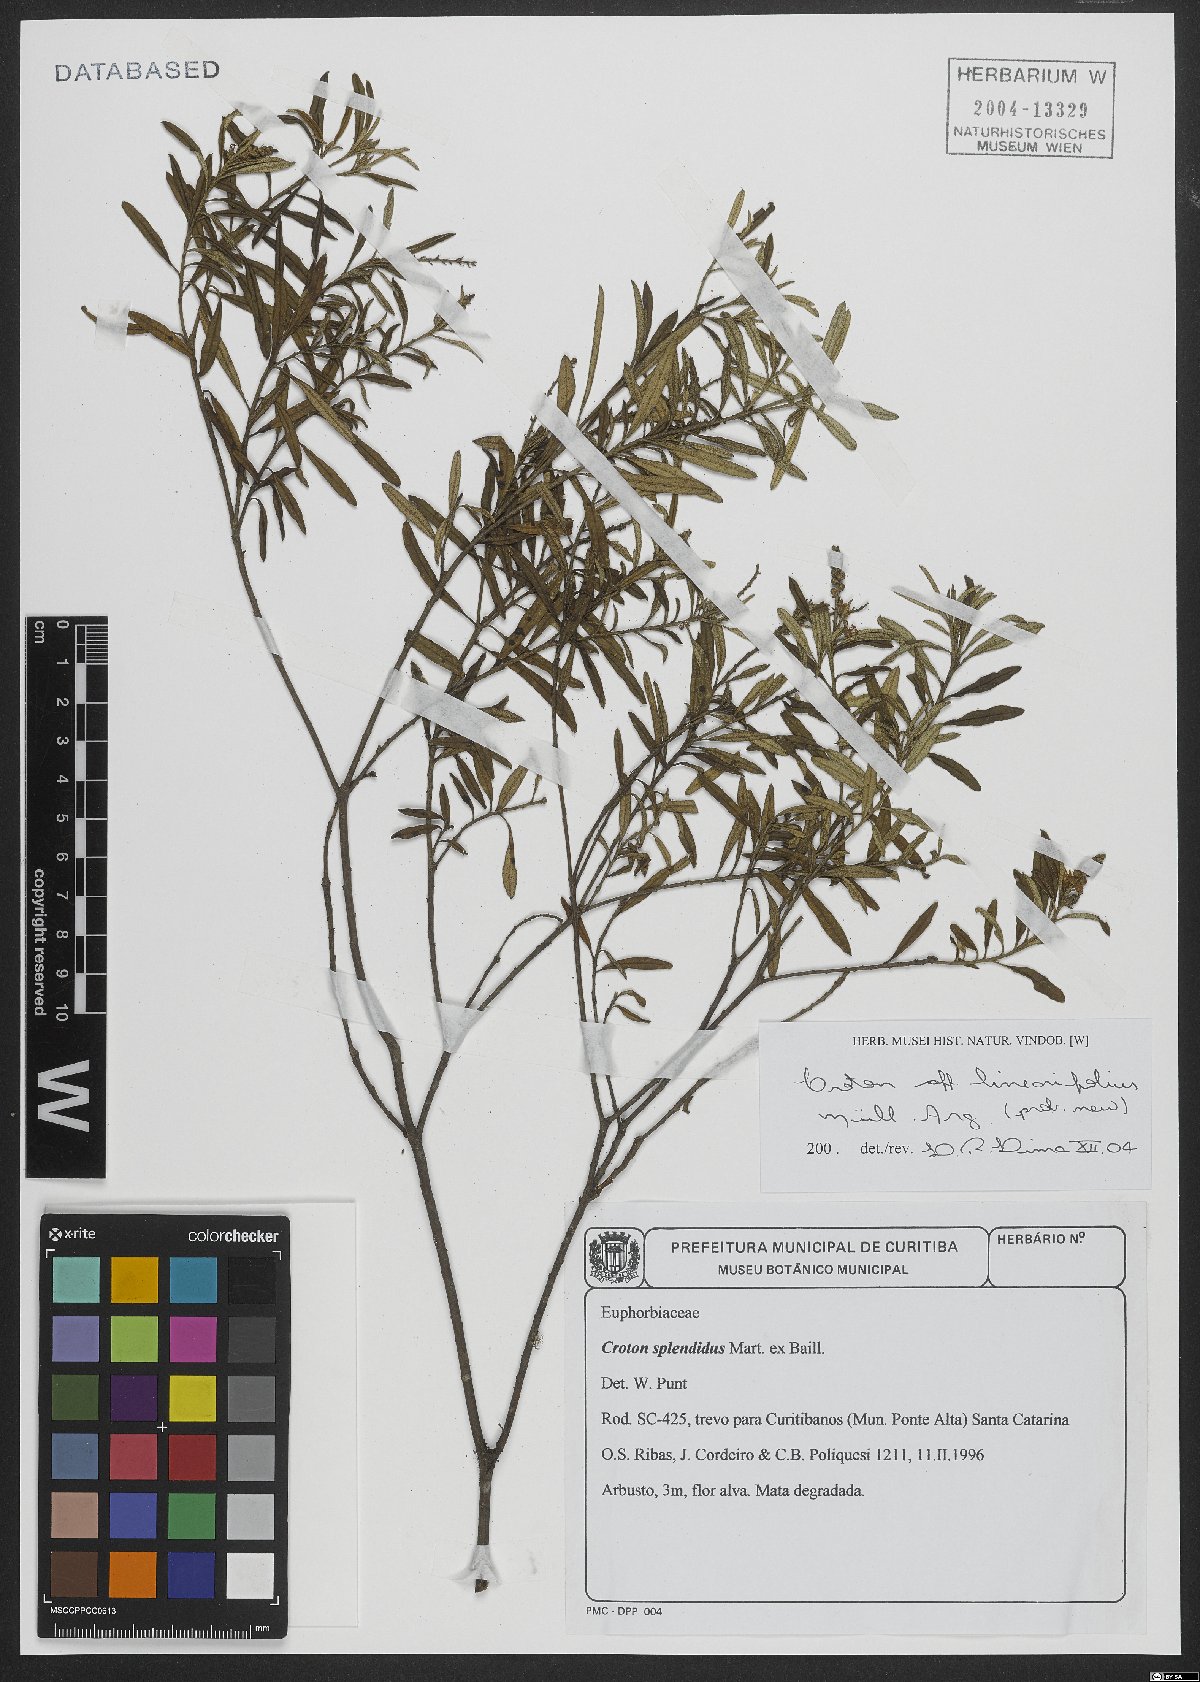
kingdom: Plantae
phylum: Tracheophyta
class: Magnoliopsida
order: Malpighiales
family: Euphorbiaceae
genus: Croton
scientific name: Croton linearifolius
